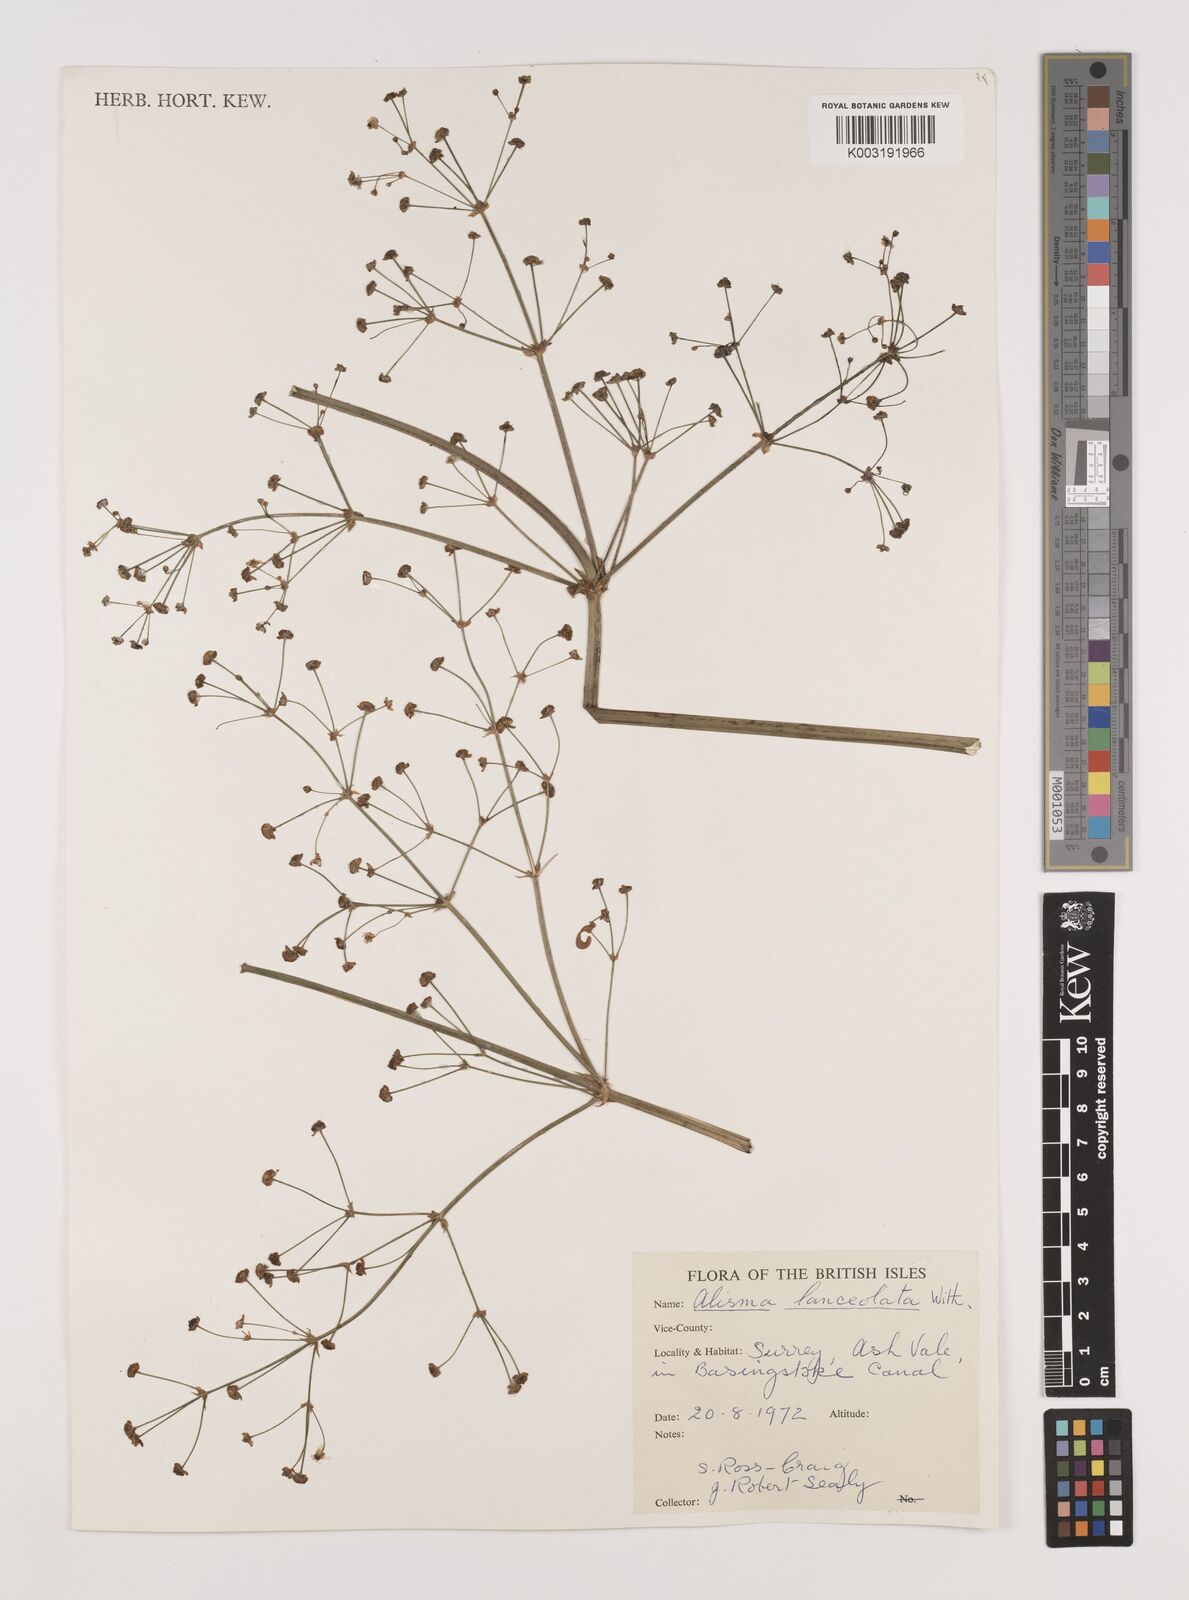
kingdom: Plantae
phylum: Tracheophyta
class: Liliopsida
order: Alismatales
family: Alismataceae
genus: Alisma
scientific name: Alisma lanceolatum
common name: Narrow-leaved water-plantain
